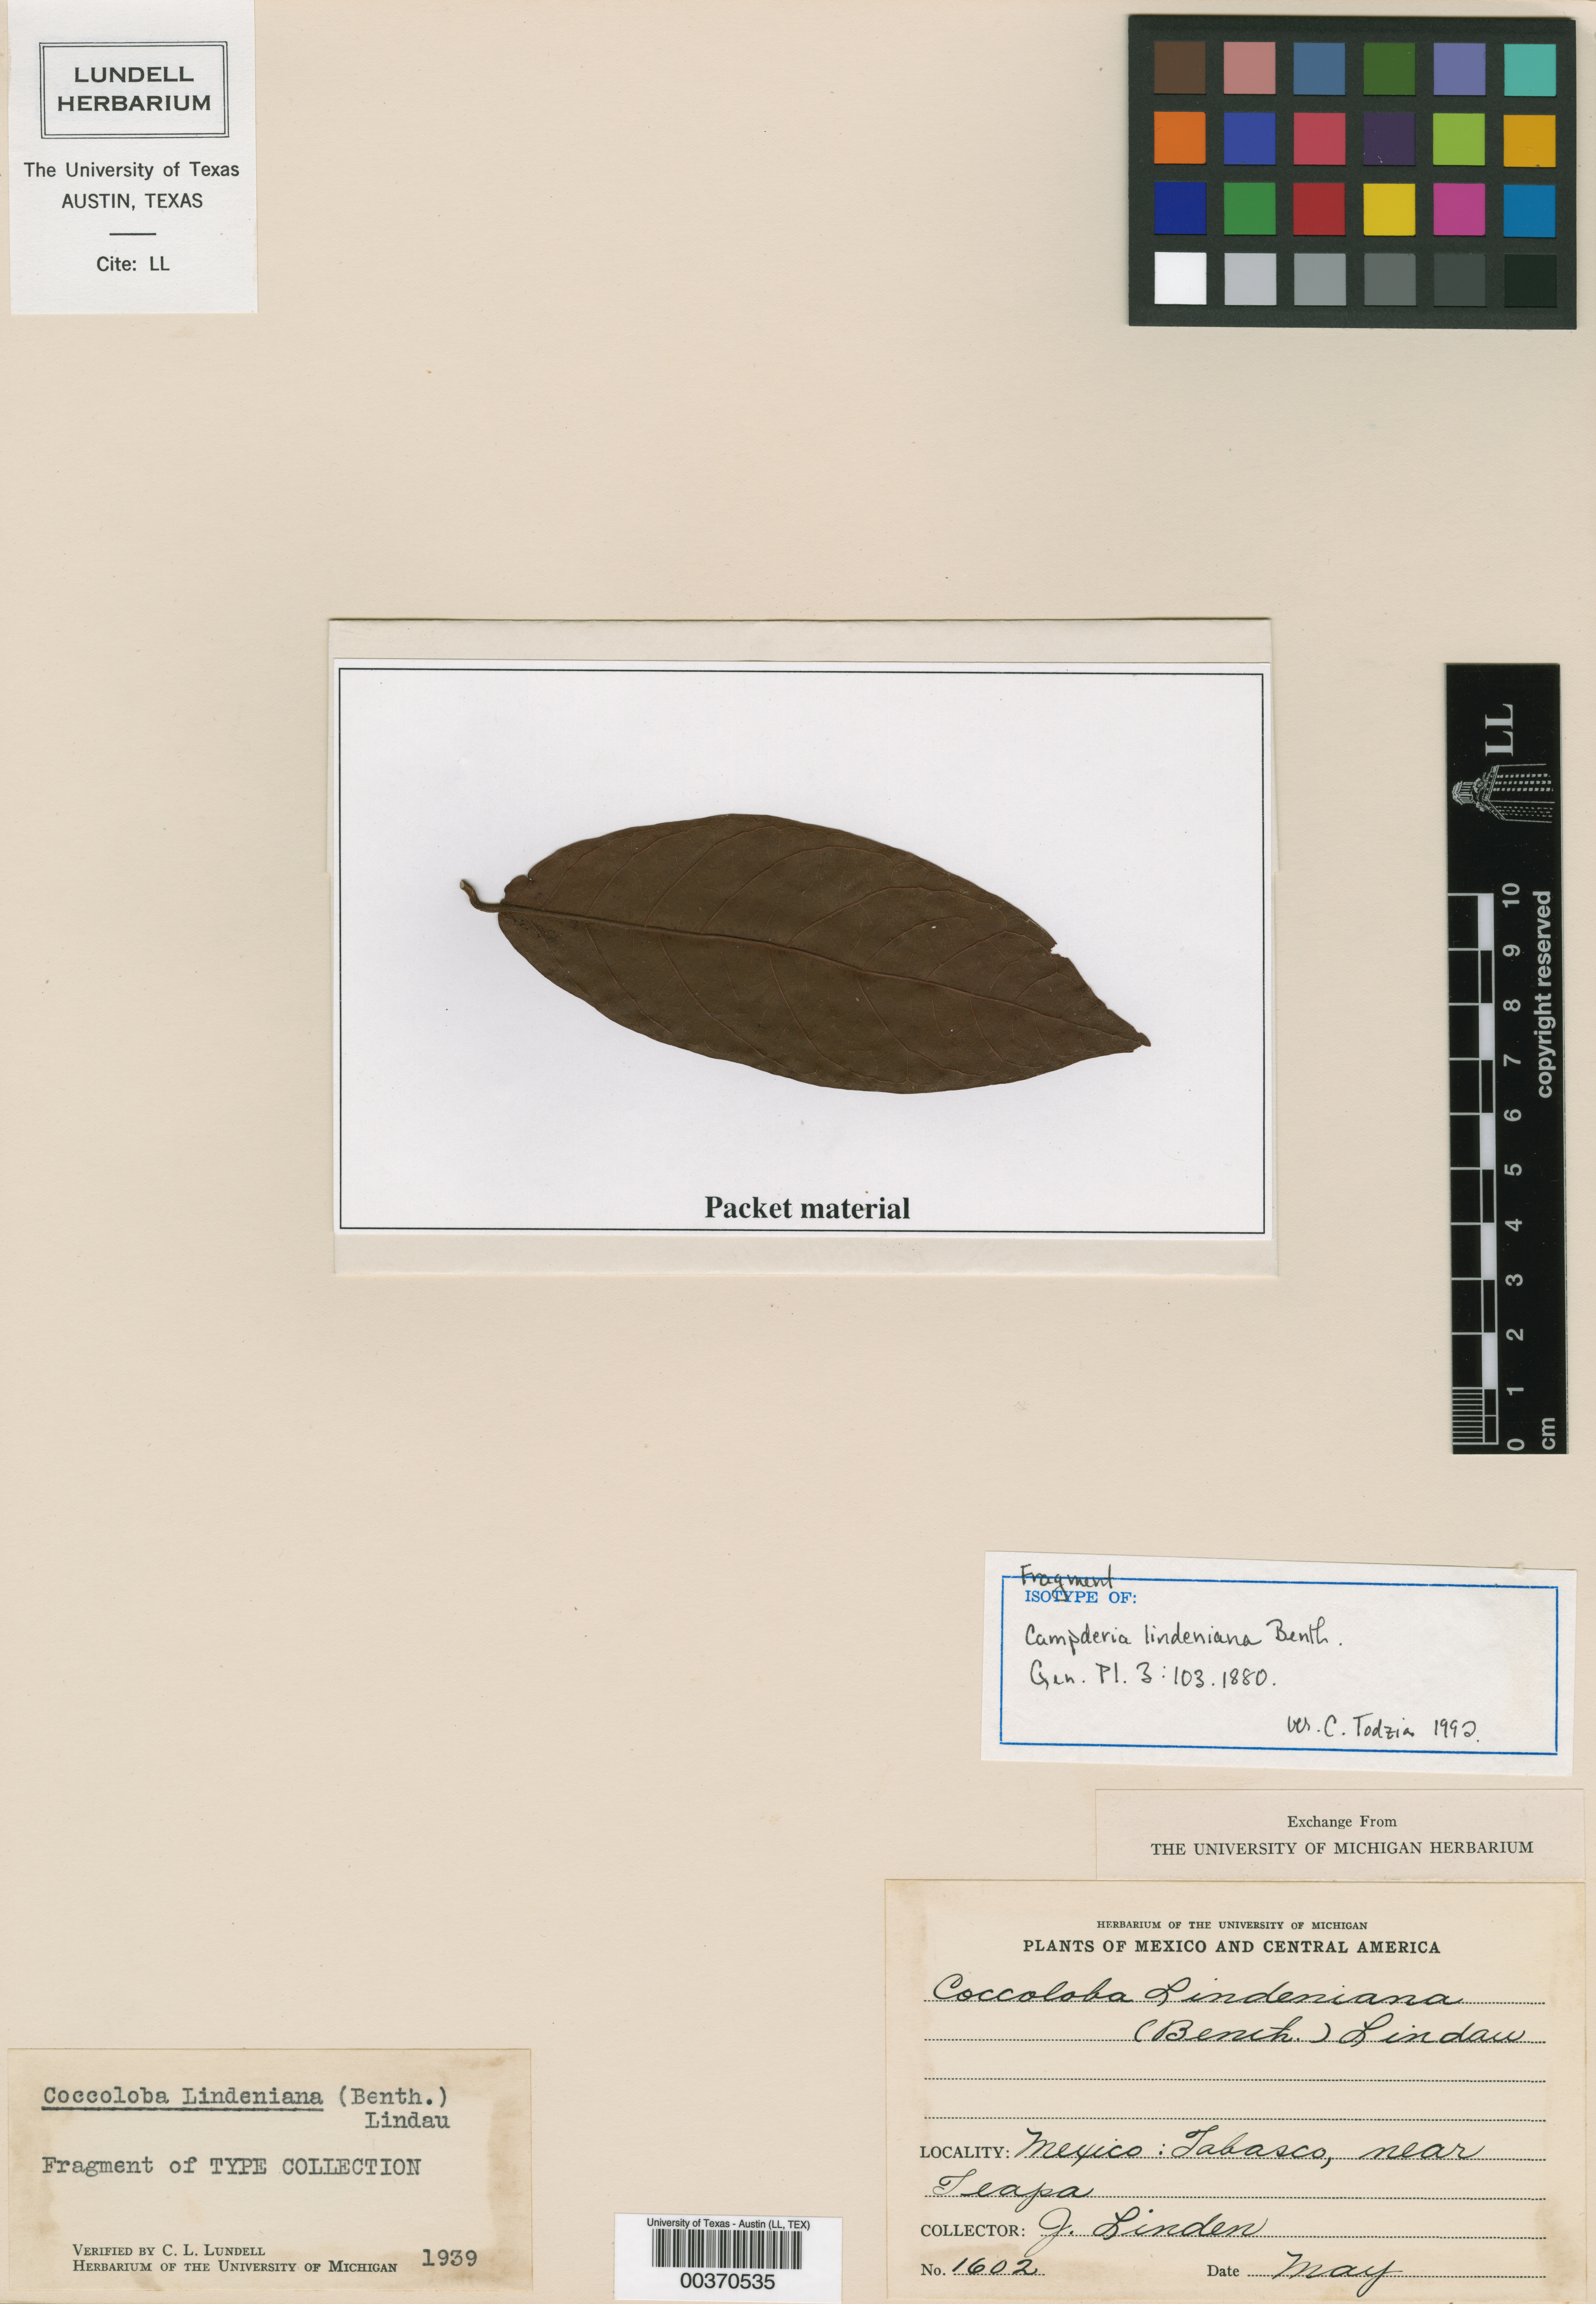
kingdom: Plantae
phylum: Tracheophyta
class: Magnoliopsida
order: Caryophyllales
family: Polygonaceae
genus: Coccoloba
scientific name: Coccoloba lindeniana
